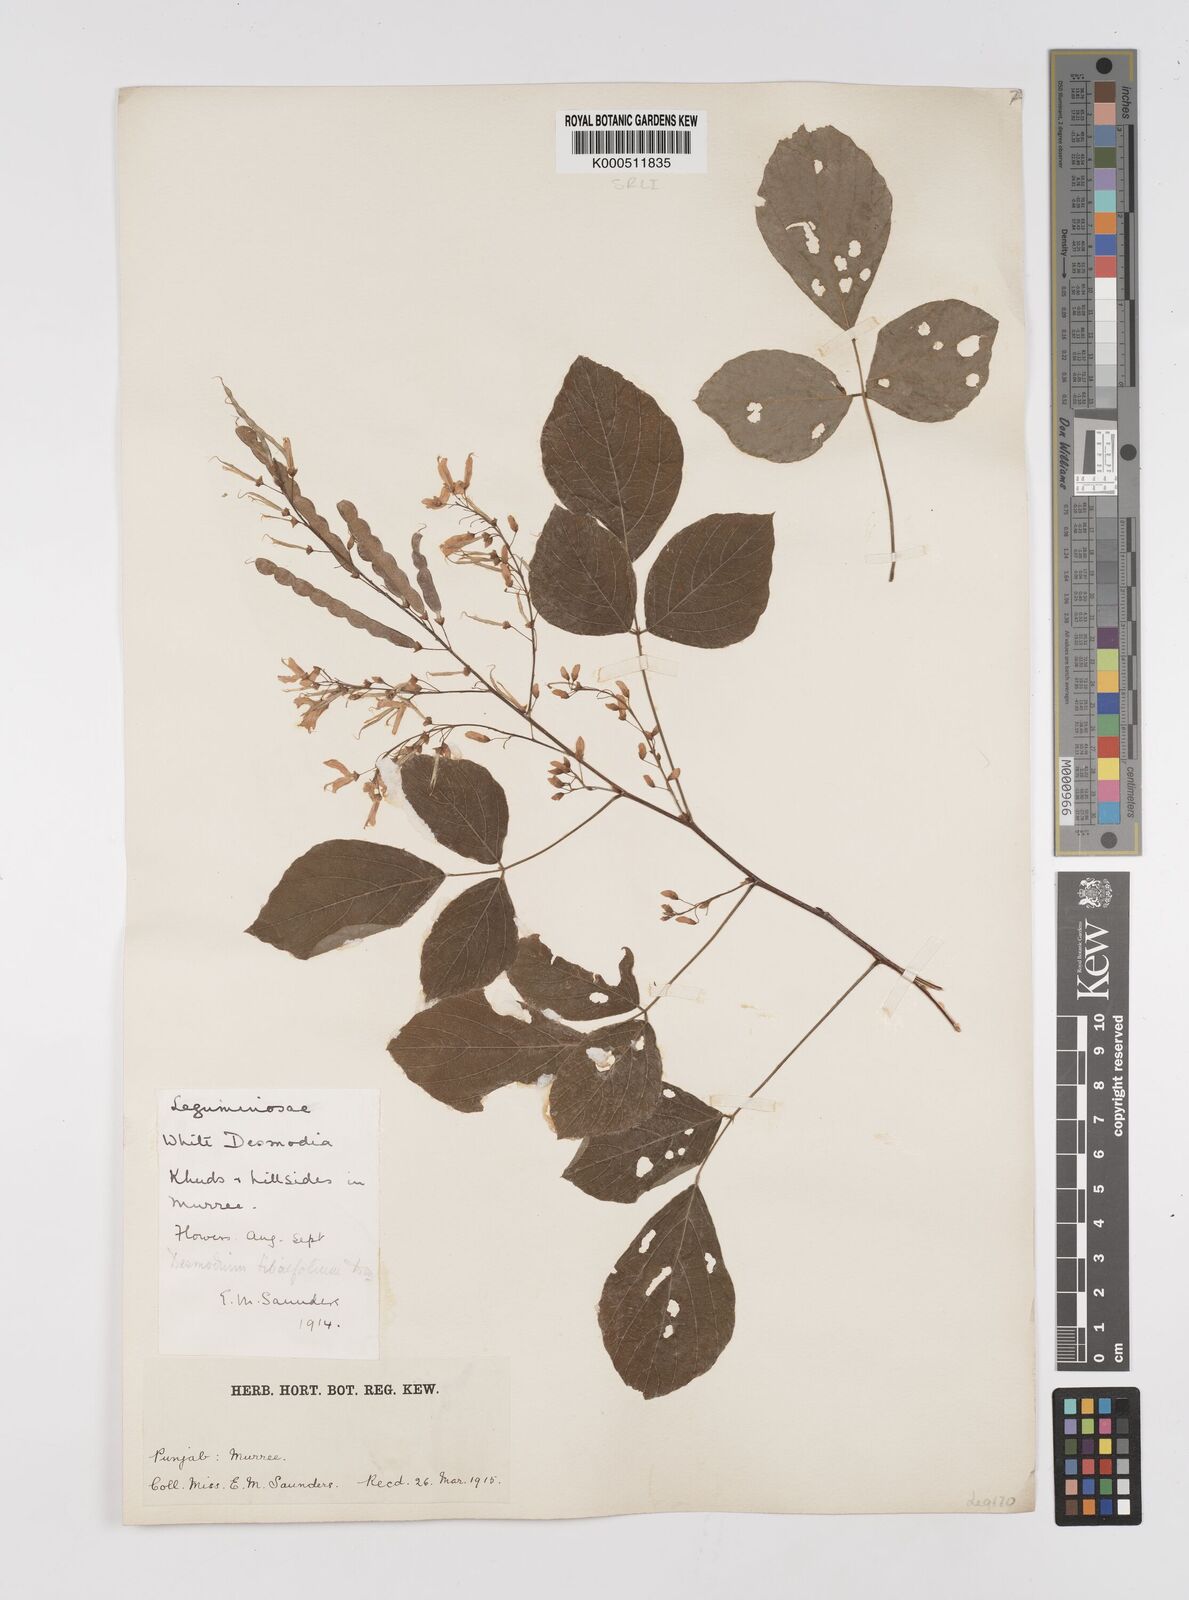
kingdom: Plantae
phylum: Tracheophyta
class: Magnoliopsida
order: Fabales
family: Fabaceae
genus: Sunhangia
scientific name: Sunhangia elegans
